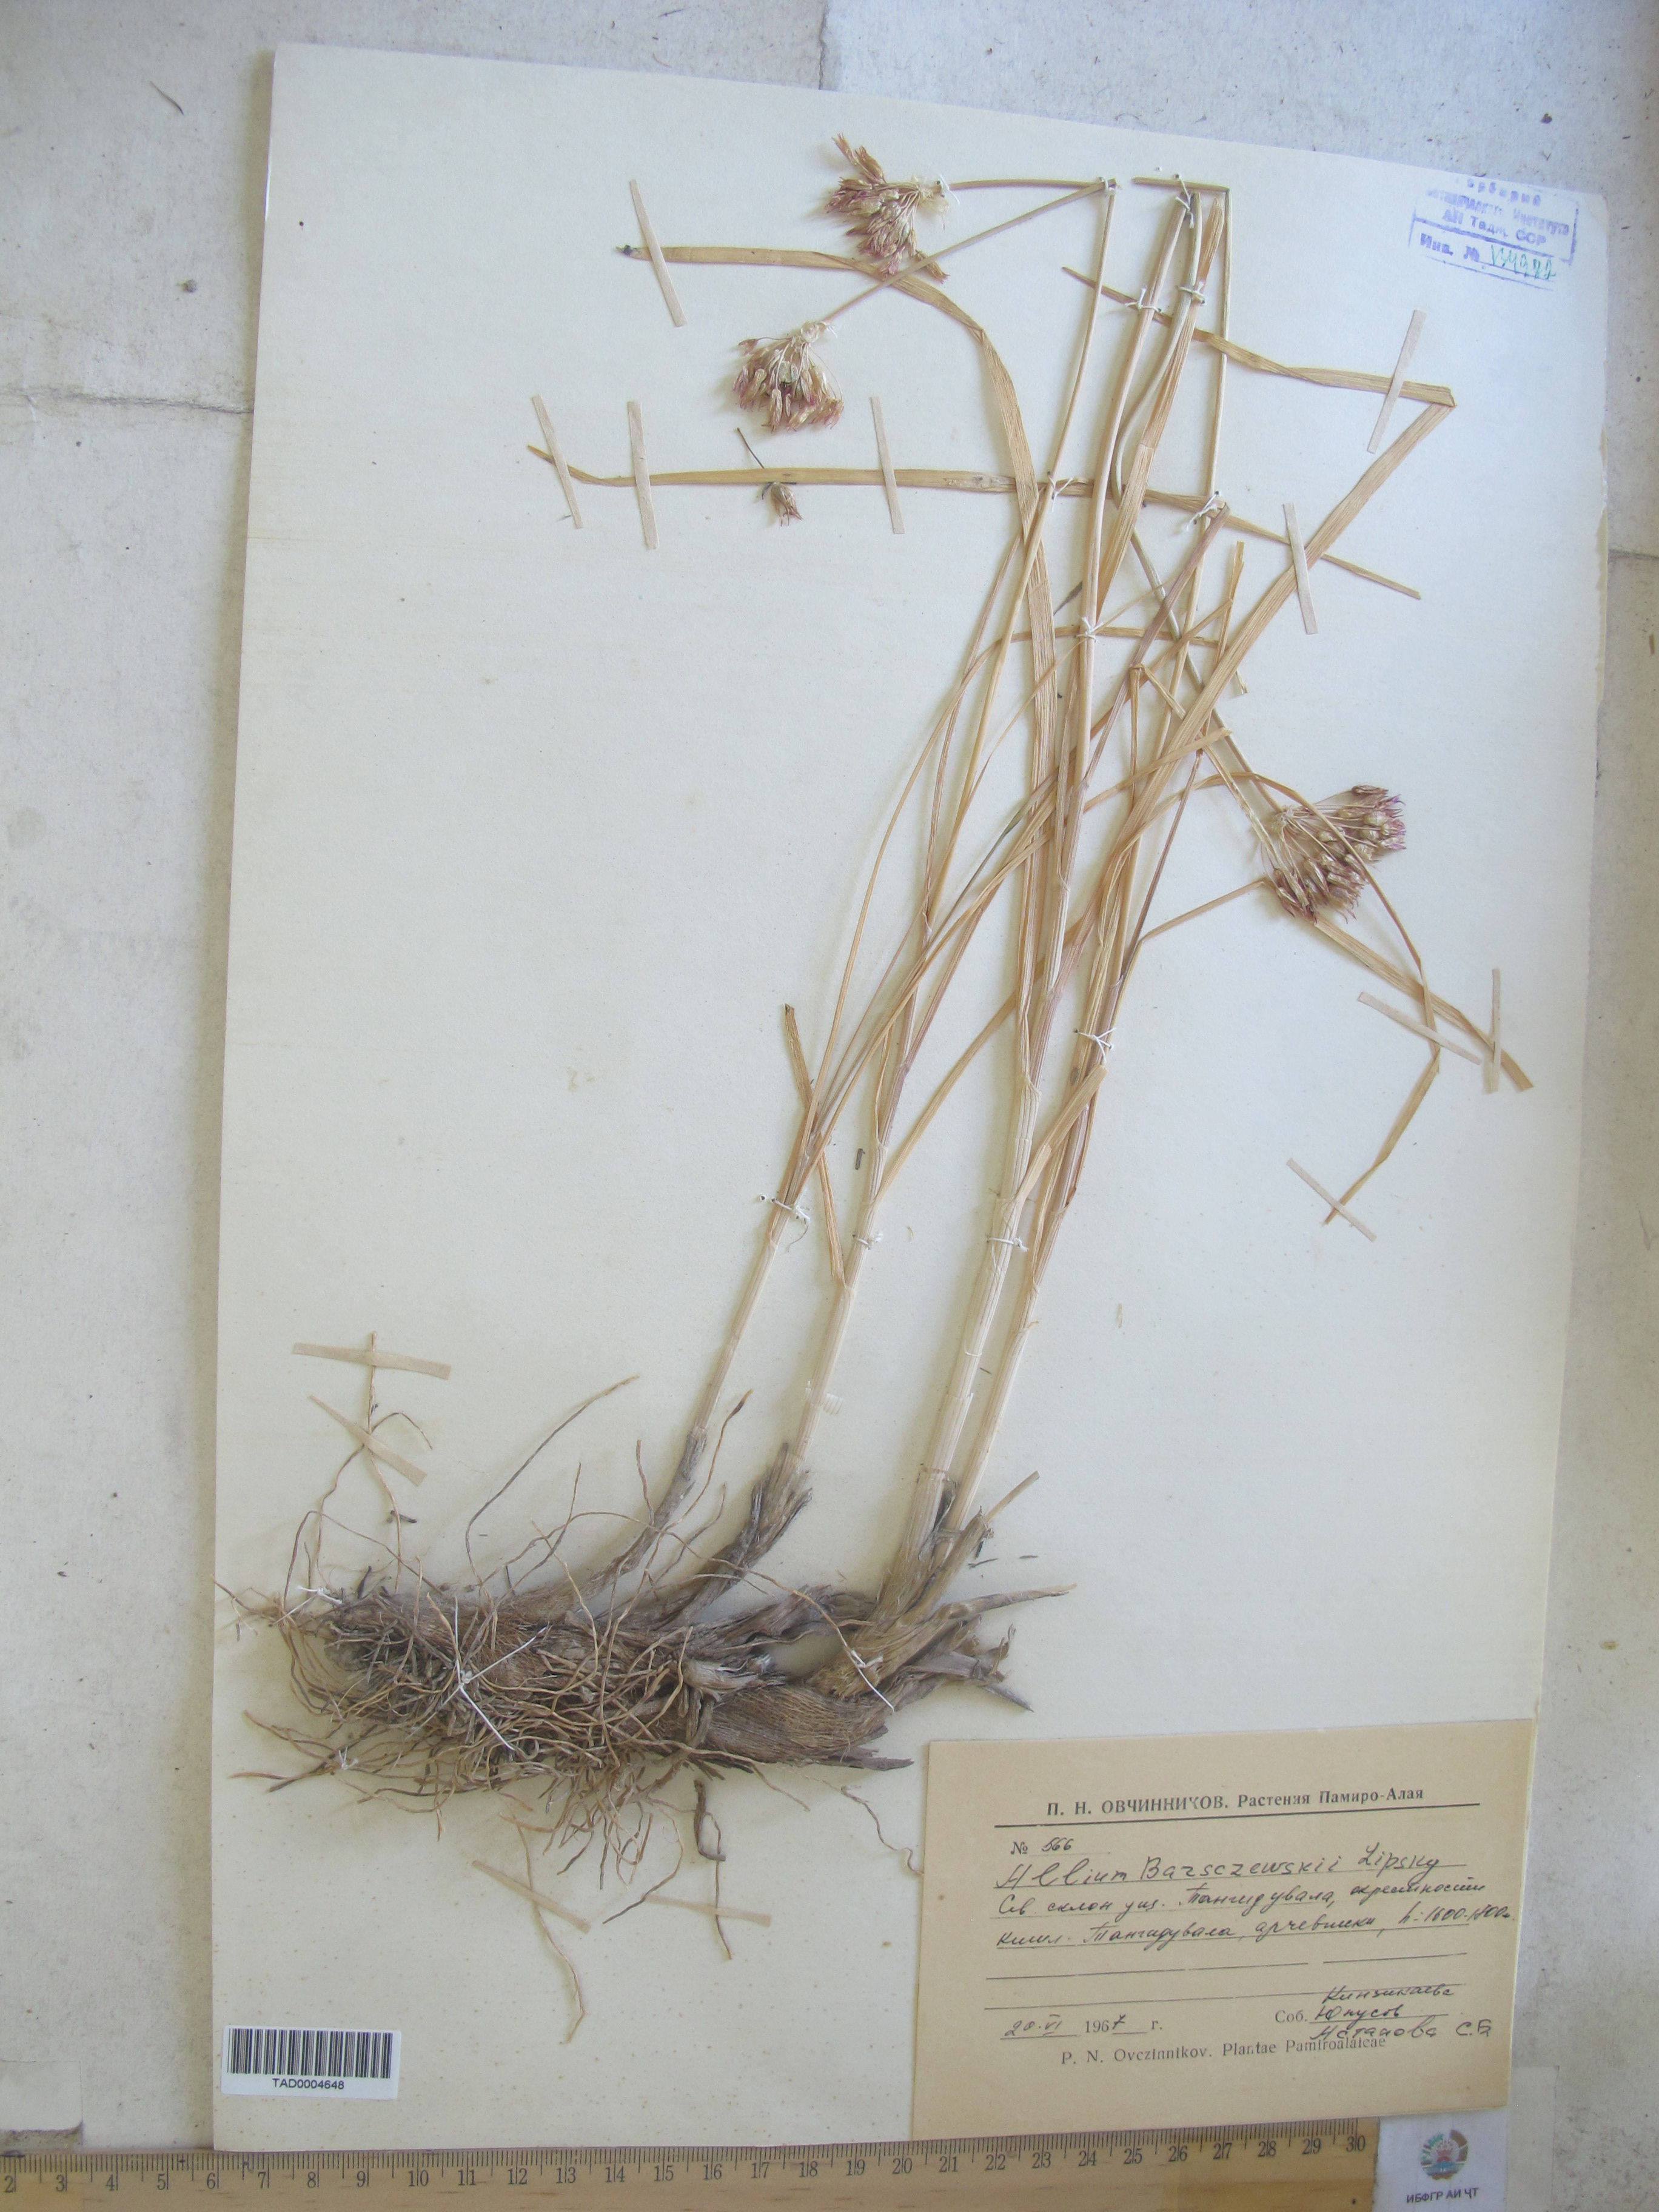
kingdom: Plantae
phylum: Tracheophyta
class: Liliopsida
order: Asparagales
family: Amaryllidaceae
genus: Allium
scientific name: Allium barsczewskii
